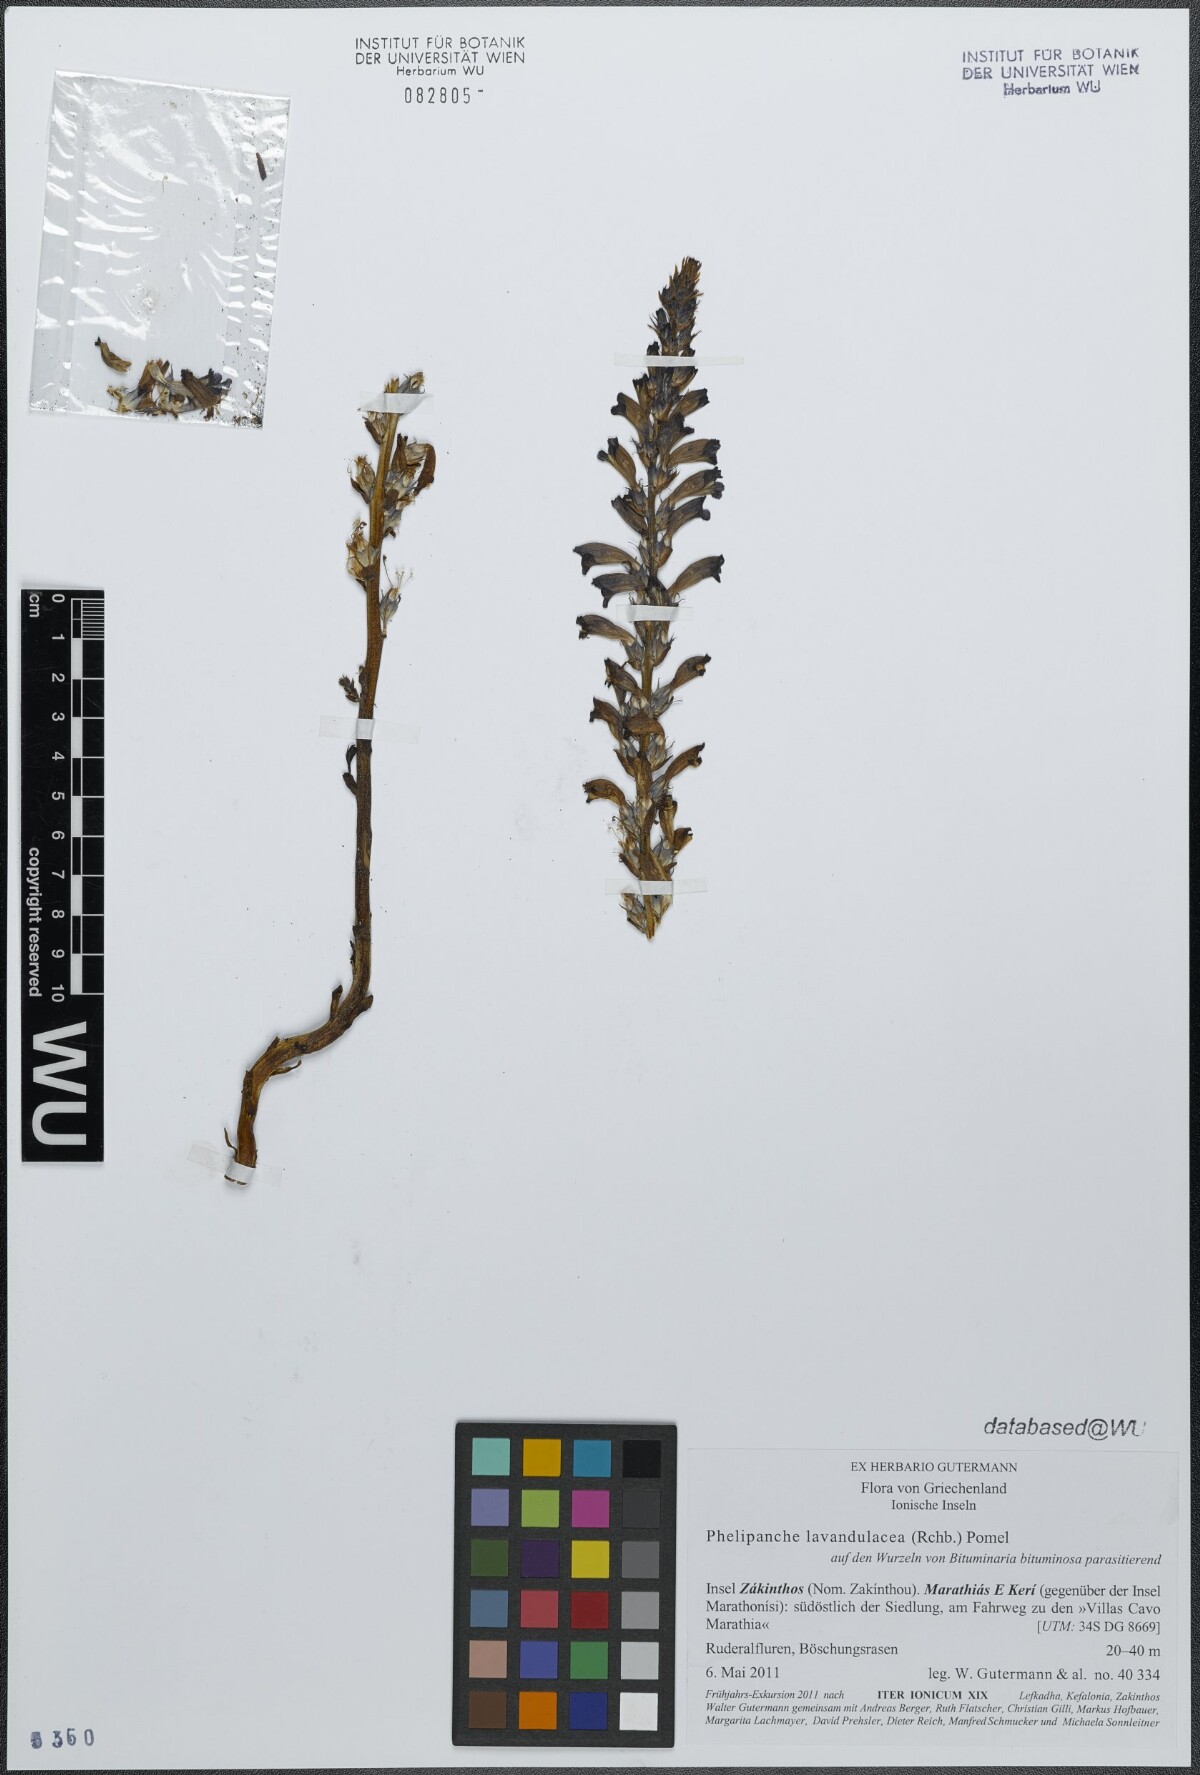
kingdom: Plantae
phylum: Tracheophyta
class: Magnoliopsida
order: Lamiales
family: Orobanchaceae
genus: Phelipanche
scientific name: Phelipanche lavandulacea
